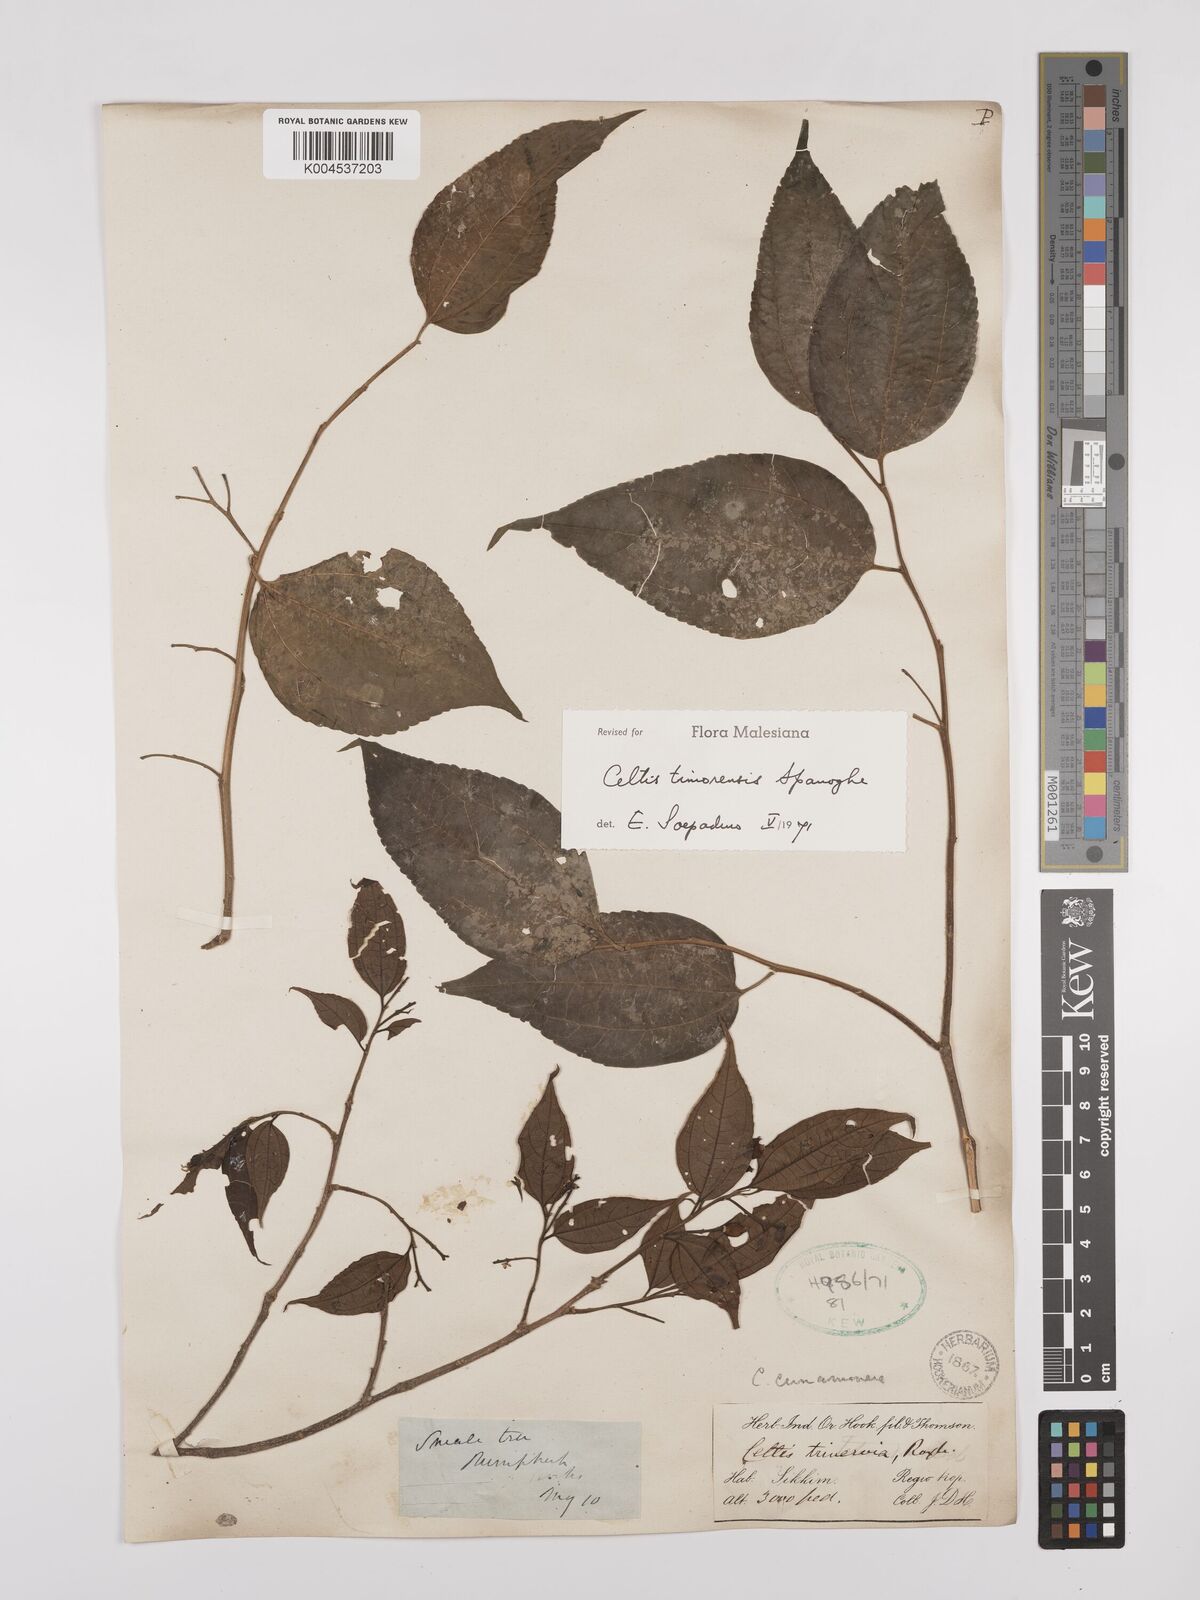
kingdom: Plantae
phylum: Tracheophyta
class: Magnoliopsida
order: Rosales
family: Cannabaceae
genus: Celtis
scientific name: Celtis timorensis
